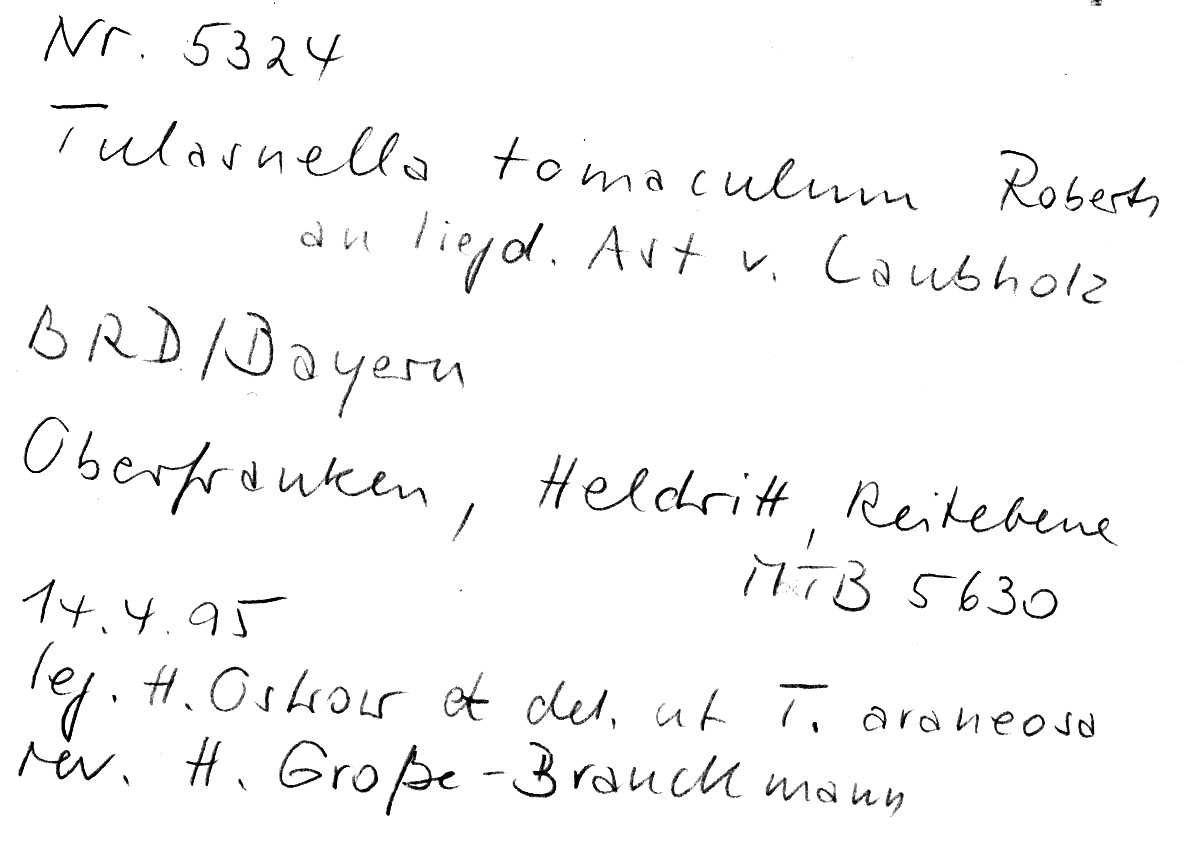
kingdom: Fungi
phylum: Basidiomycota
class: Agaricomycetes
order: Cantharellales
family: Tulasnellaceae
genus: Tulasnella
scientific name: Tulasnella tomaculum
